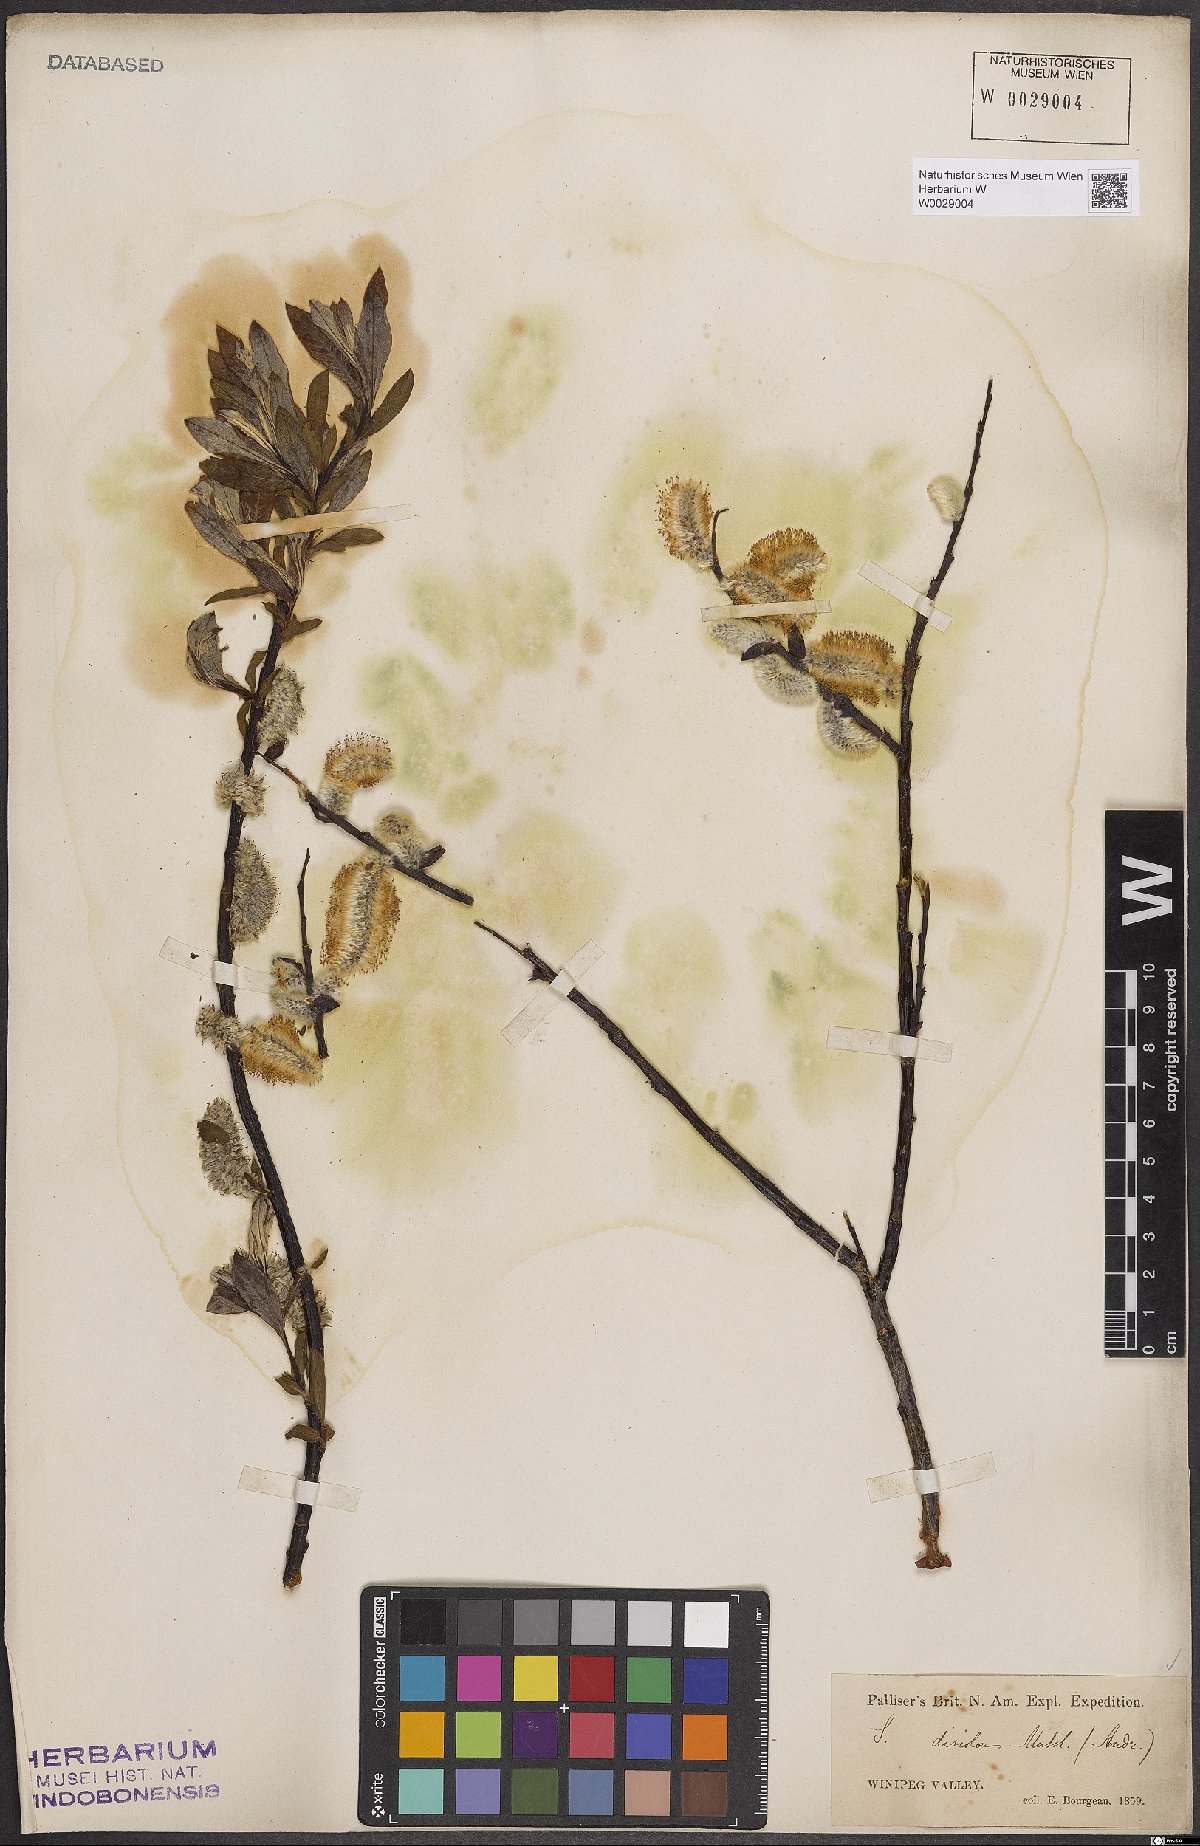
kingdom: Plantae
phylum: Tracheophyta
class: Magnoliopsida
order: Malpighiales
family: Salicaceae
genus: Salix
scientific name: Salix discolor
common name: Glaucous willow
